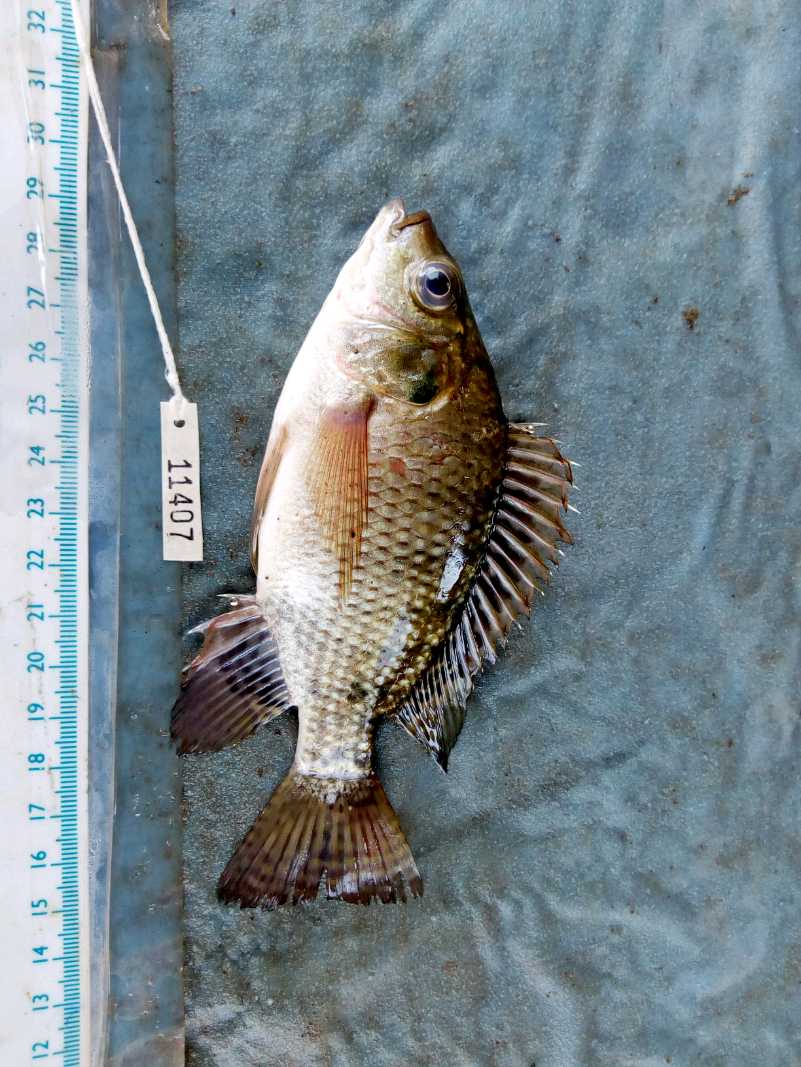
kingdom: Animalia
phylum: Chordata
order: Perciformes
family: Cichlidae
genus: Oreochromis
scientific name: Oreochromis niloticus
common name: Nile tilapia
